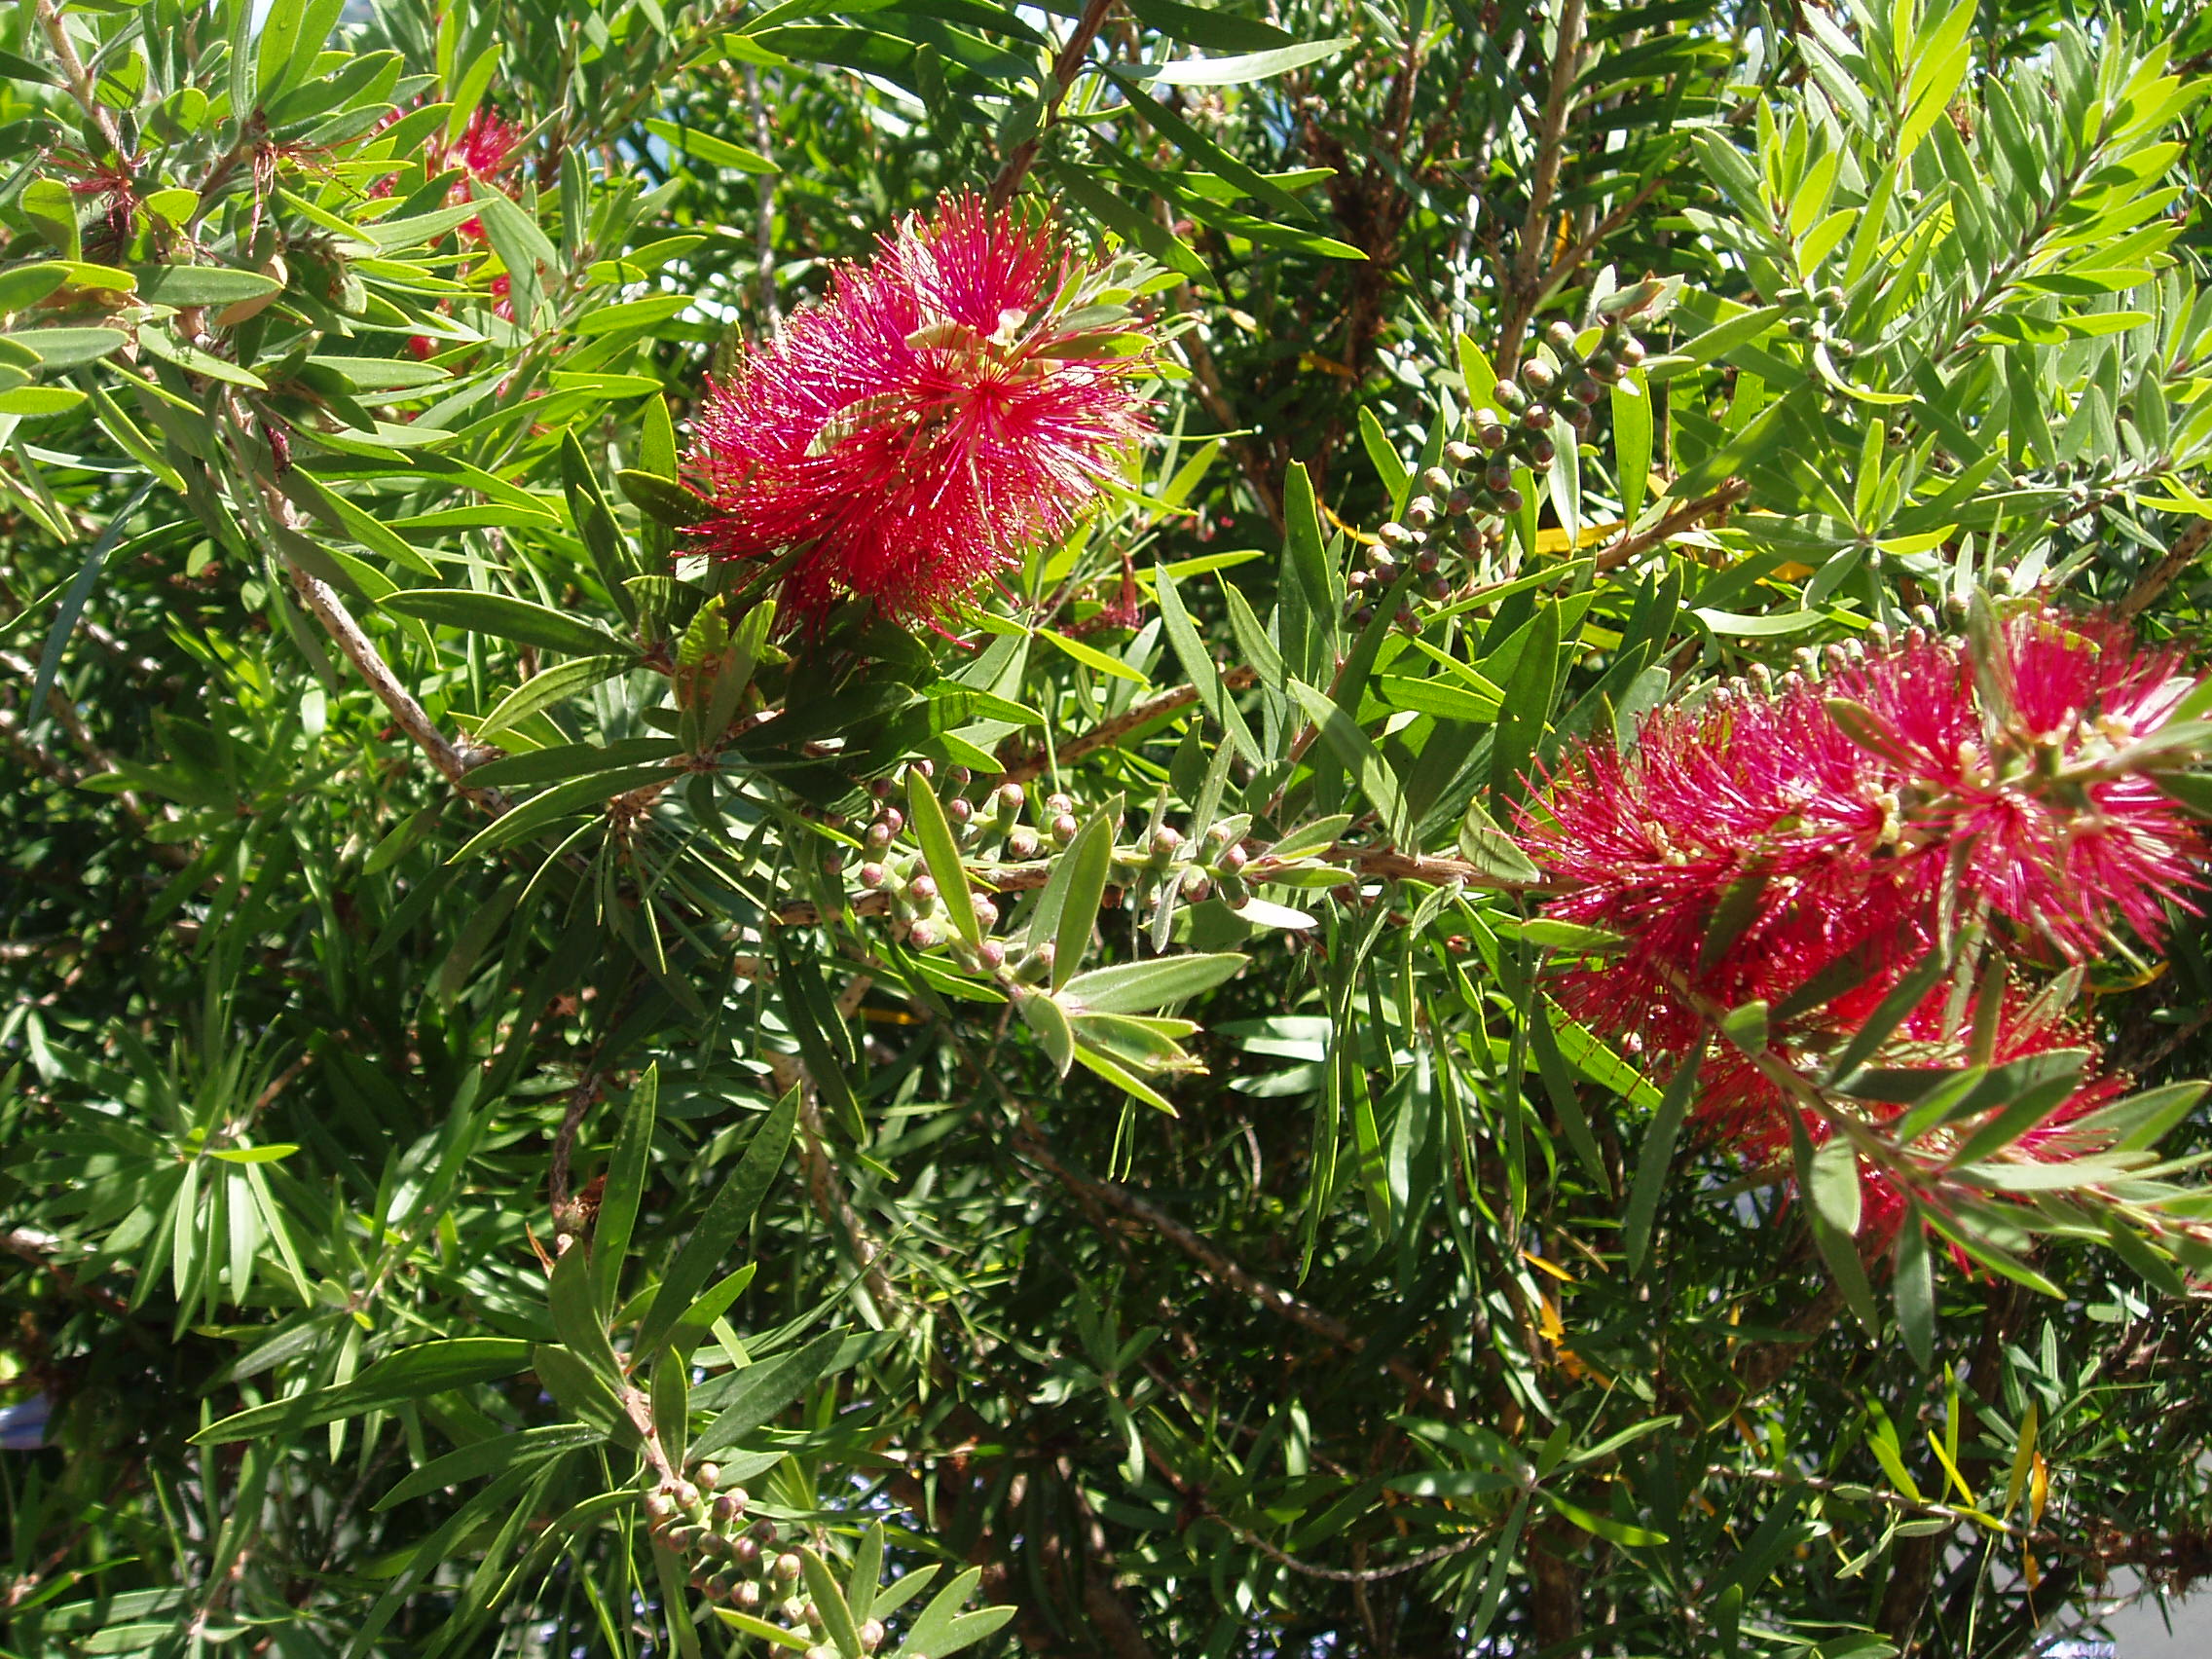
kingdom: Plantae
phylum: Tracheophyta
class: Magnoliopsida
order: Myrtales
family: Myrtaceae
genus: Callistemon
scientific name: Callistemon
